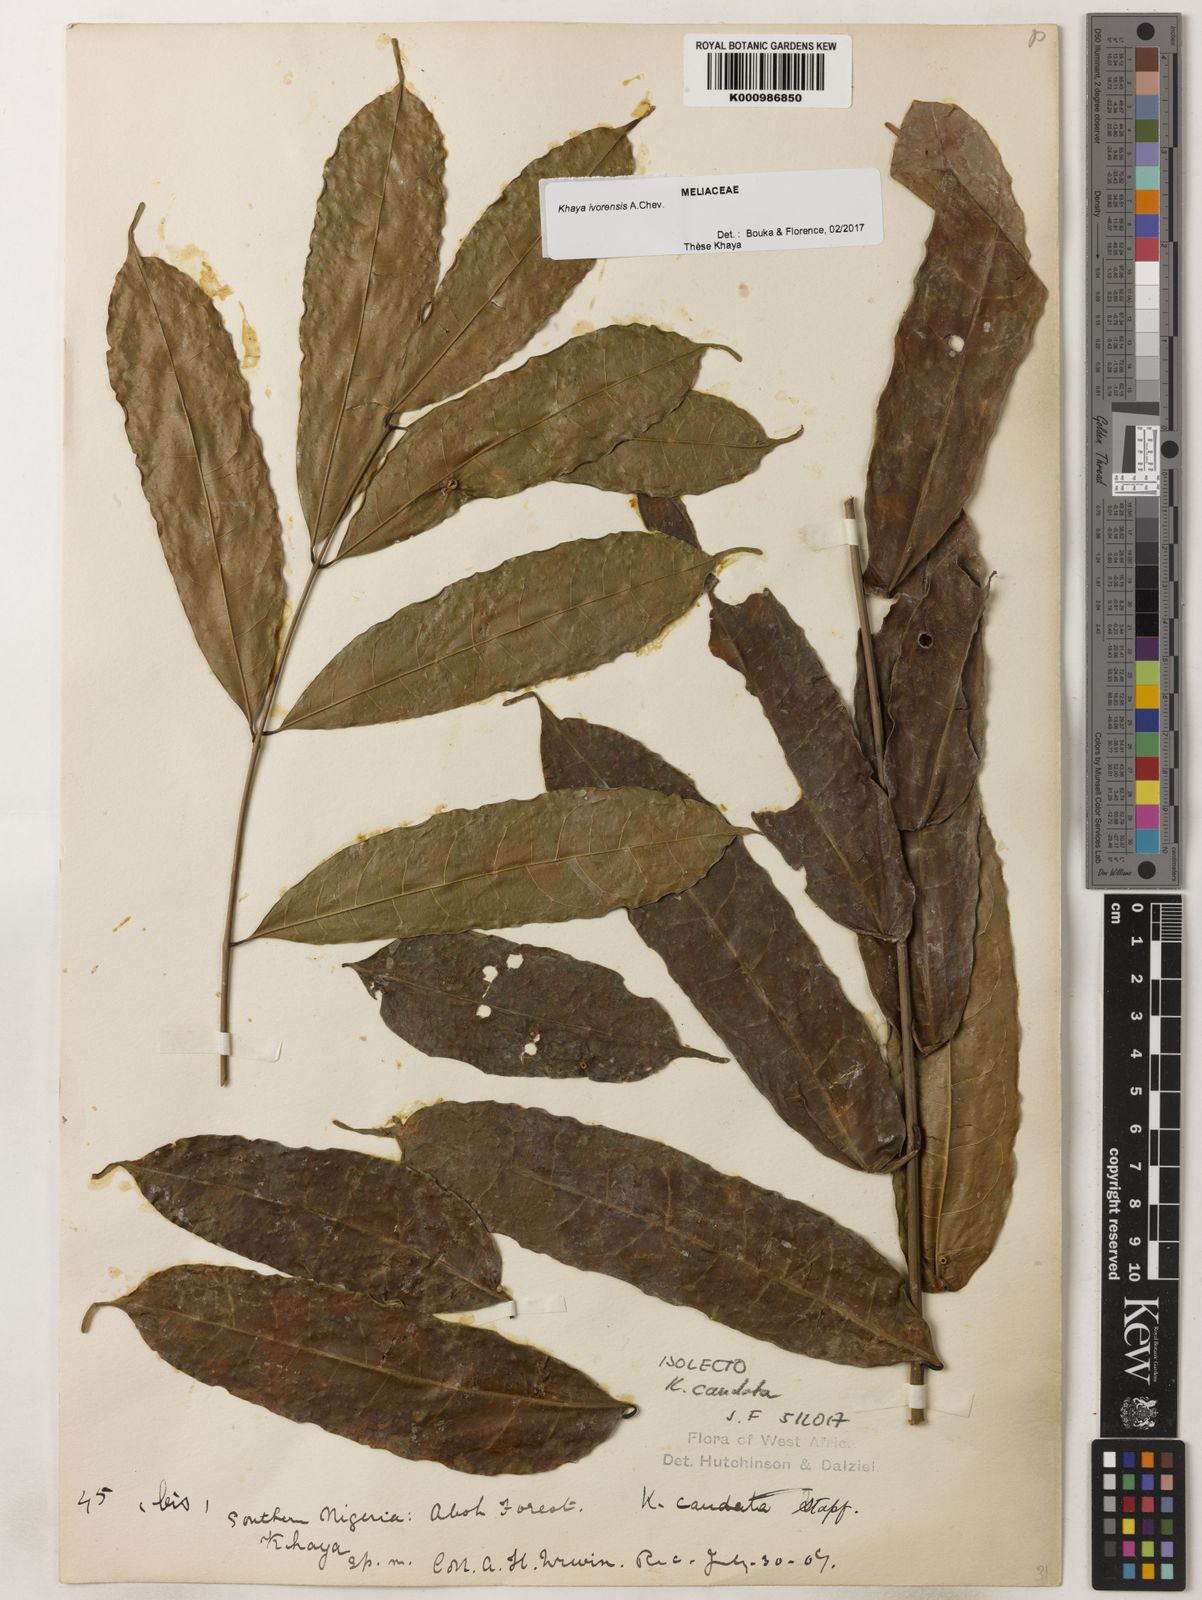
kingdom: Plantae
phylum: Tracheophyta
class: Magnoliopsida
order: Sapindales
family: Meliaceae
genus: Khaya
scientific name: Khaya ivorensis
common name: African mahogany
